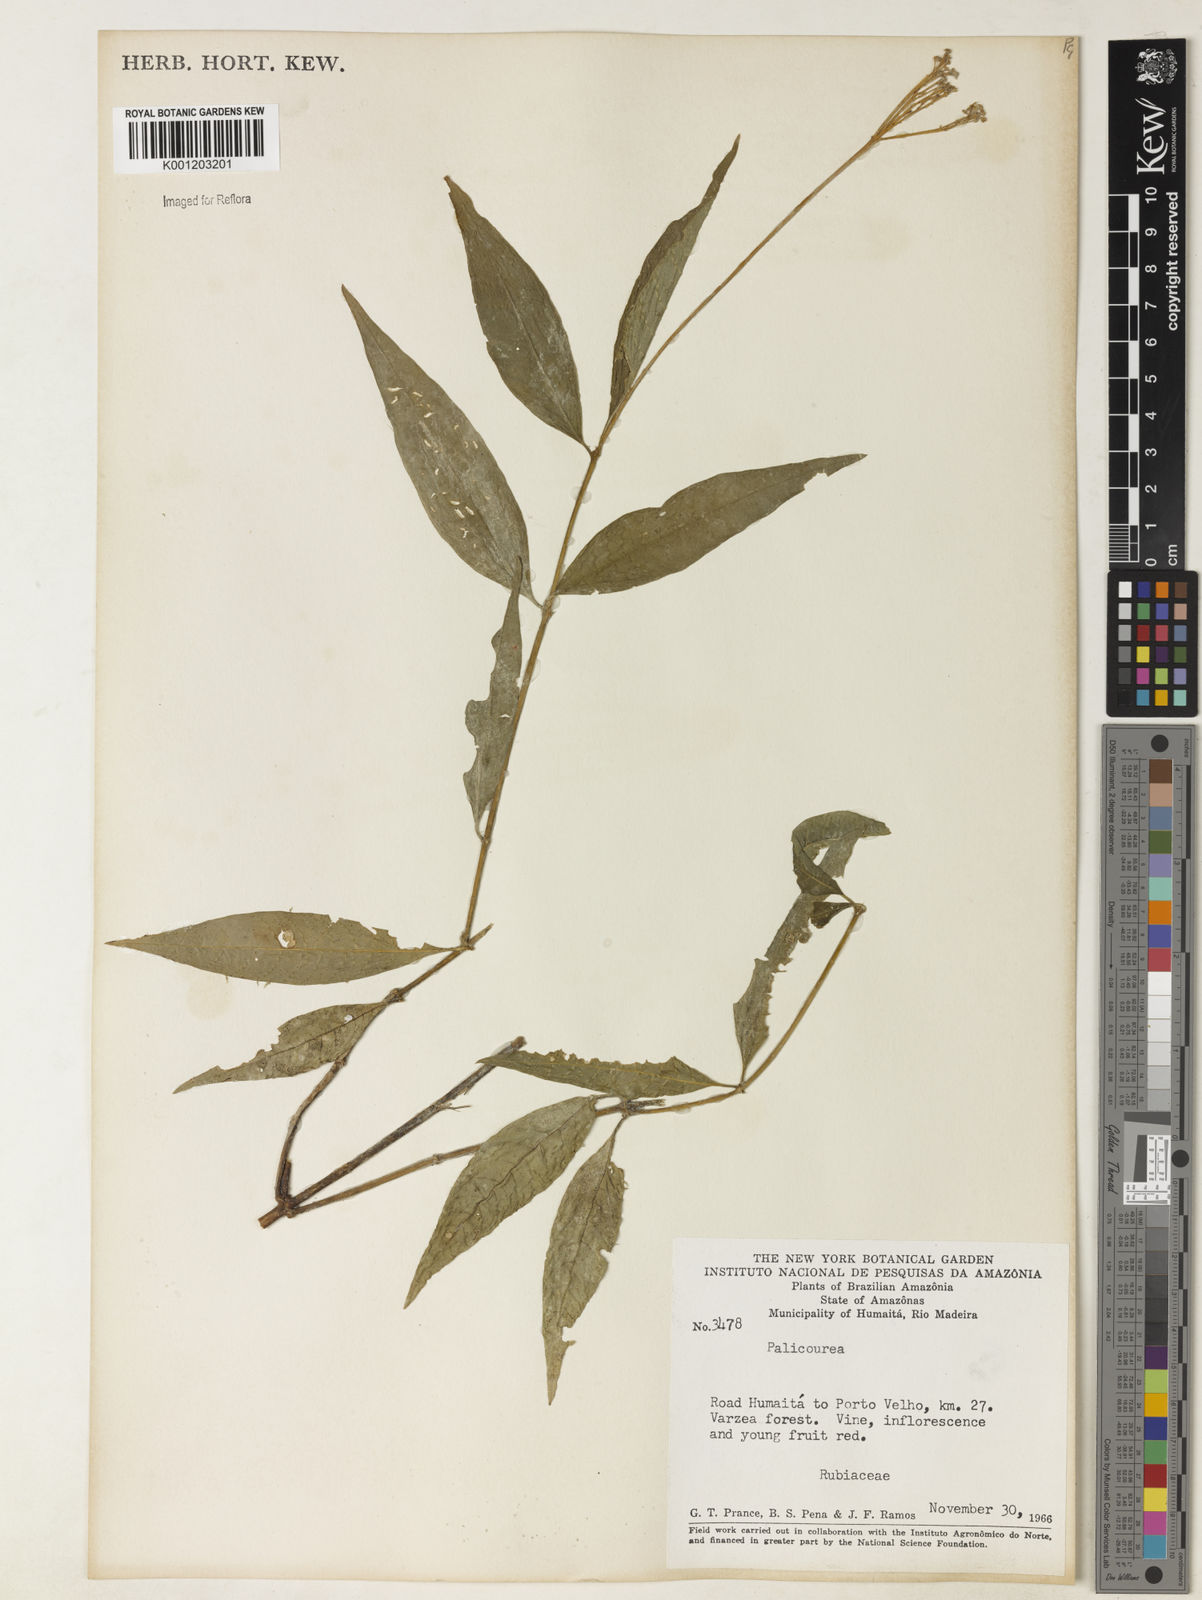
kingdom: Plantae
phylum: Tracheophyta
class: Magnoliopsida
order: Gentianales
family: Rubiaceae
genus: Palicourea
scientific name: Palicourea
